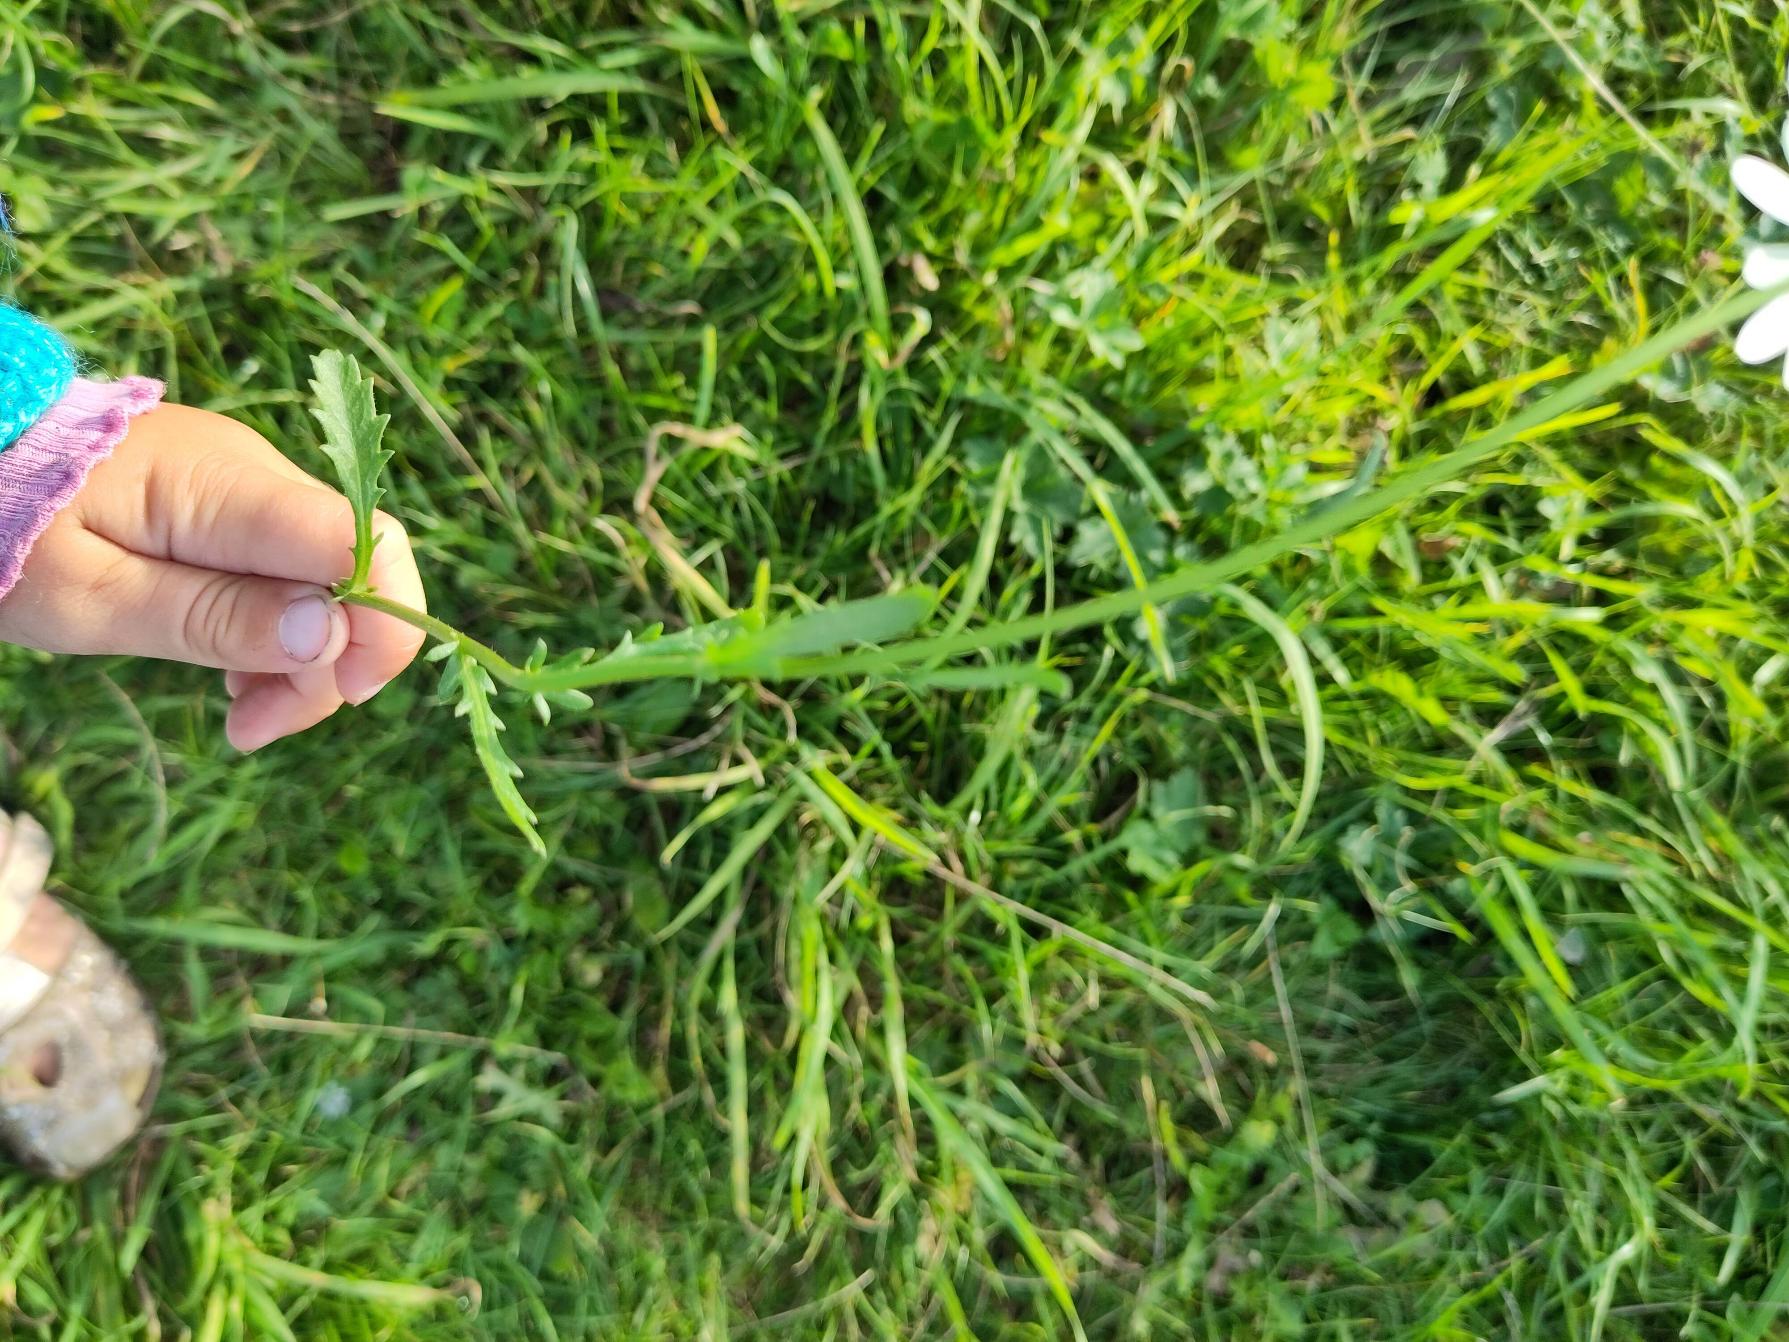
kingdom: Plantae
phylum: Tracheophyta
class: Magnoliopsida
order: Asterales
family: Asteraceae
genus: Leucanthemum
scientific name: Leucanthemum vulgare
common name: Hvid okseøje
